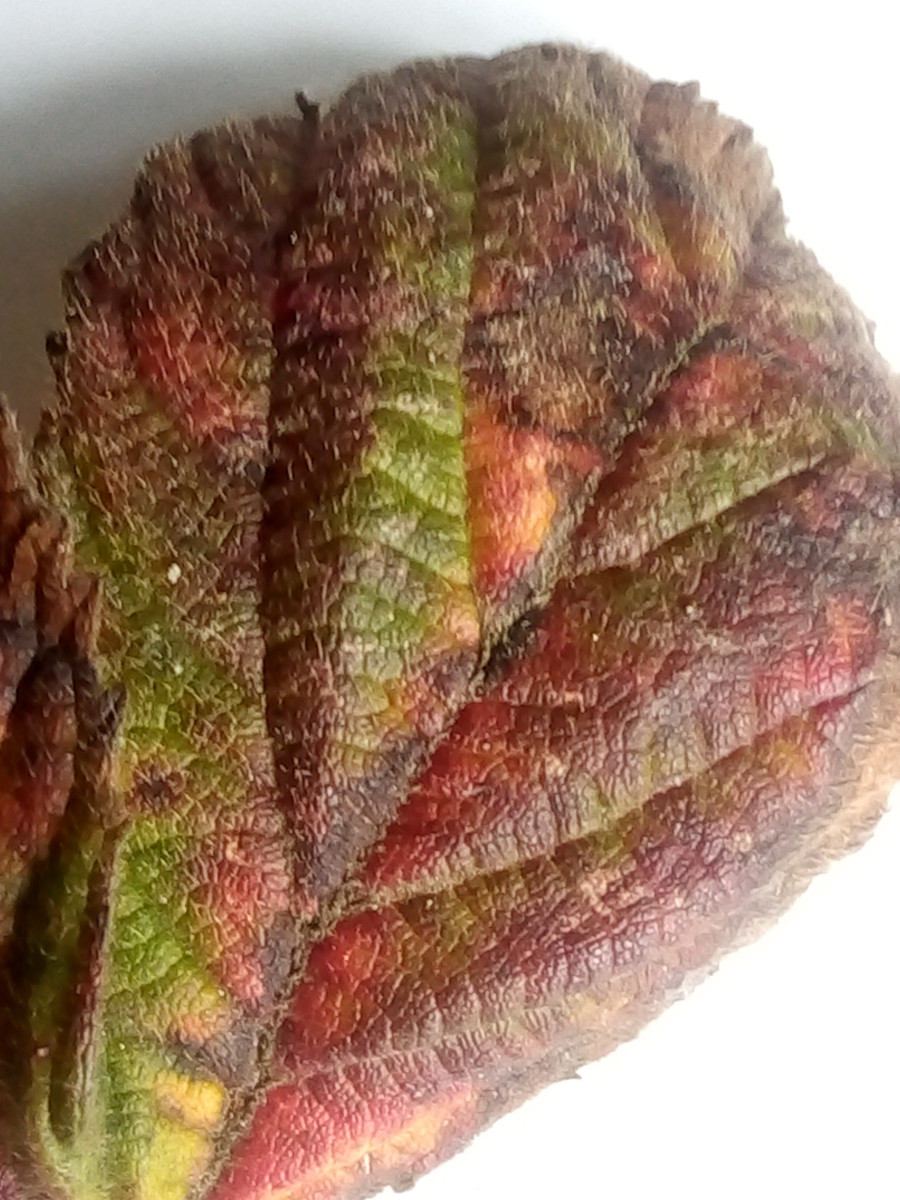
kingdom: Fungi
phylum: Basidiomycota
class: Pucciniomycetes
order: Pucciniales
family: Phragmidiaceae
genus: Phragmidium
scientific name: Phragmidium bulbosum
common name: brombær-flercellerust
